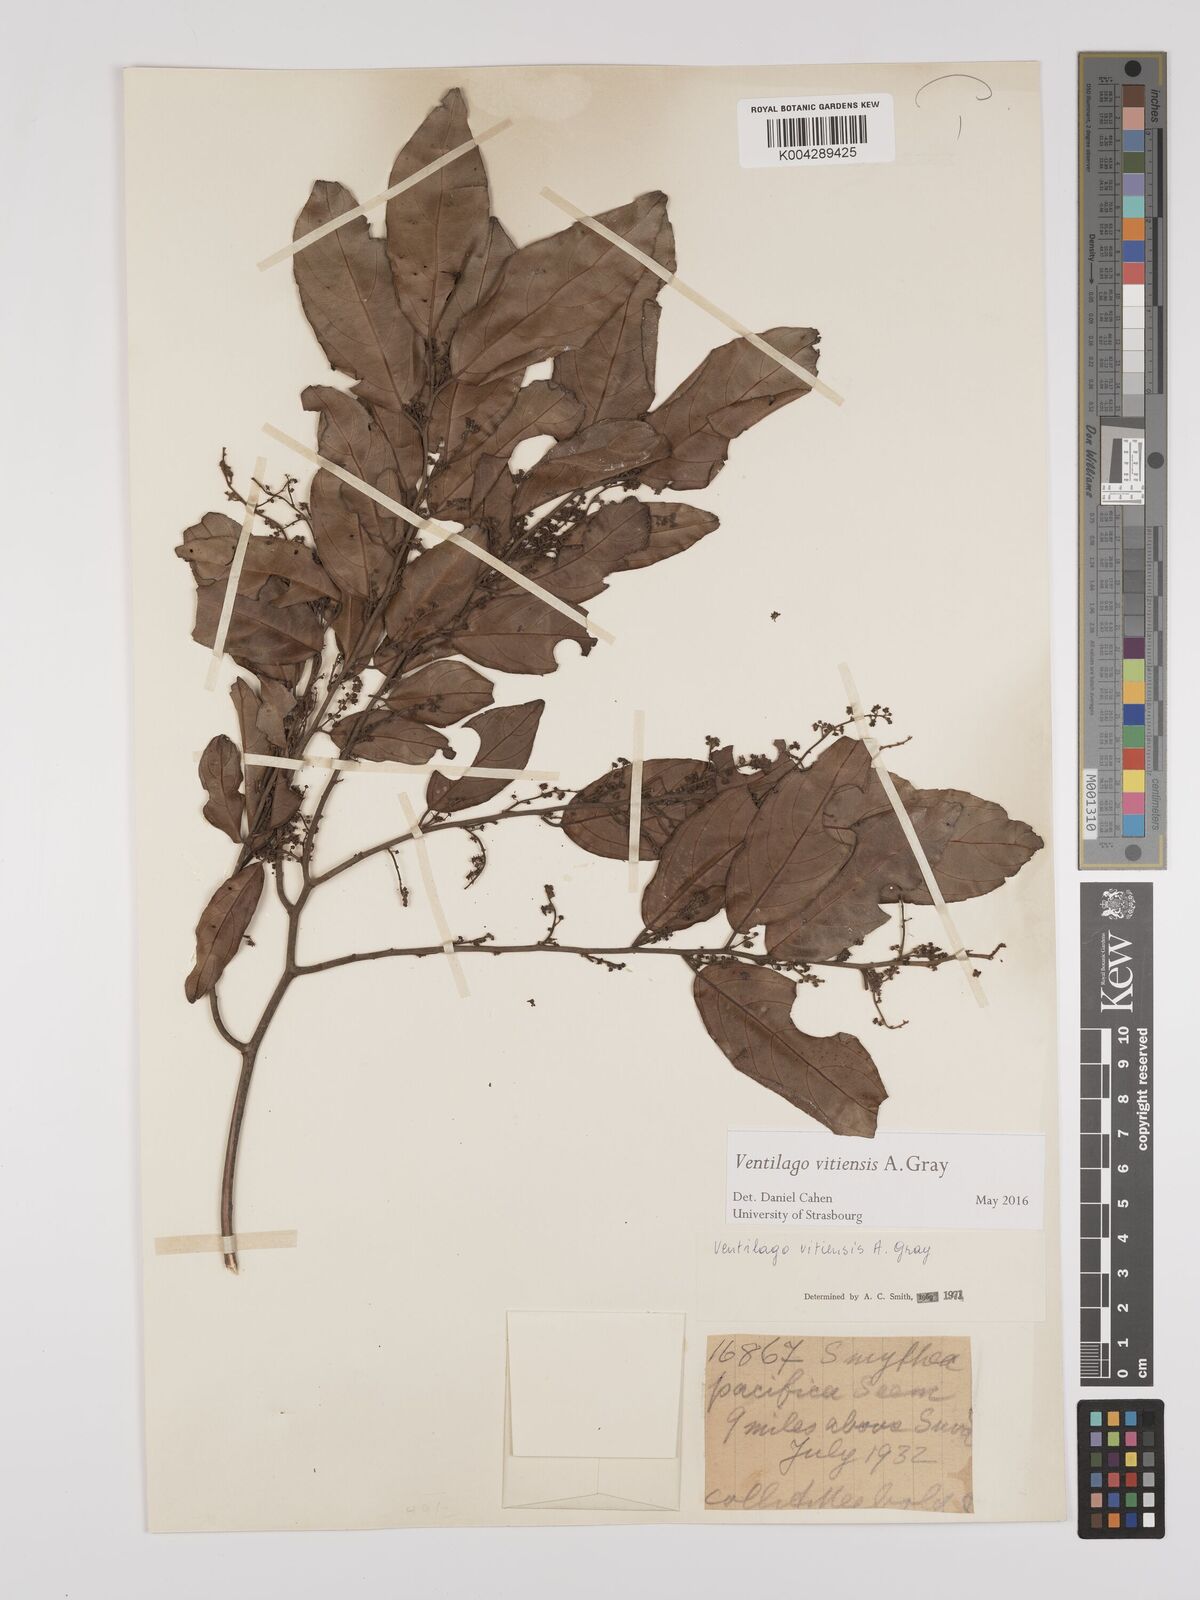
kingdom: Plantae
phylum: Tracheophyta
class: Magnoliopsida
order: Rosales
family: Rhamnaceae
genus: Ventilago
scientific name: Ventilago vitiensis
